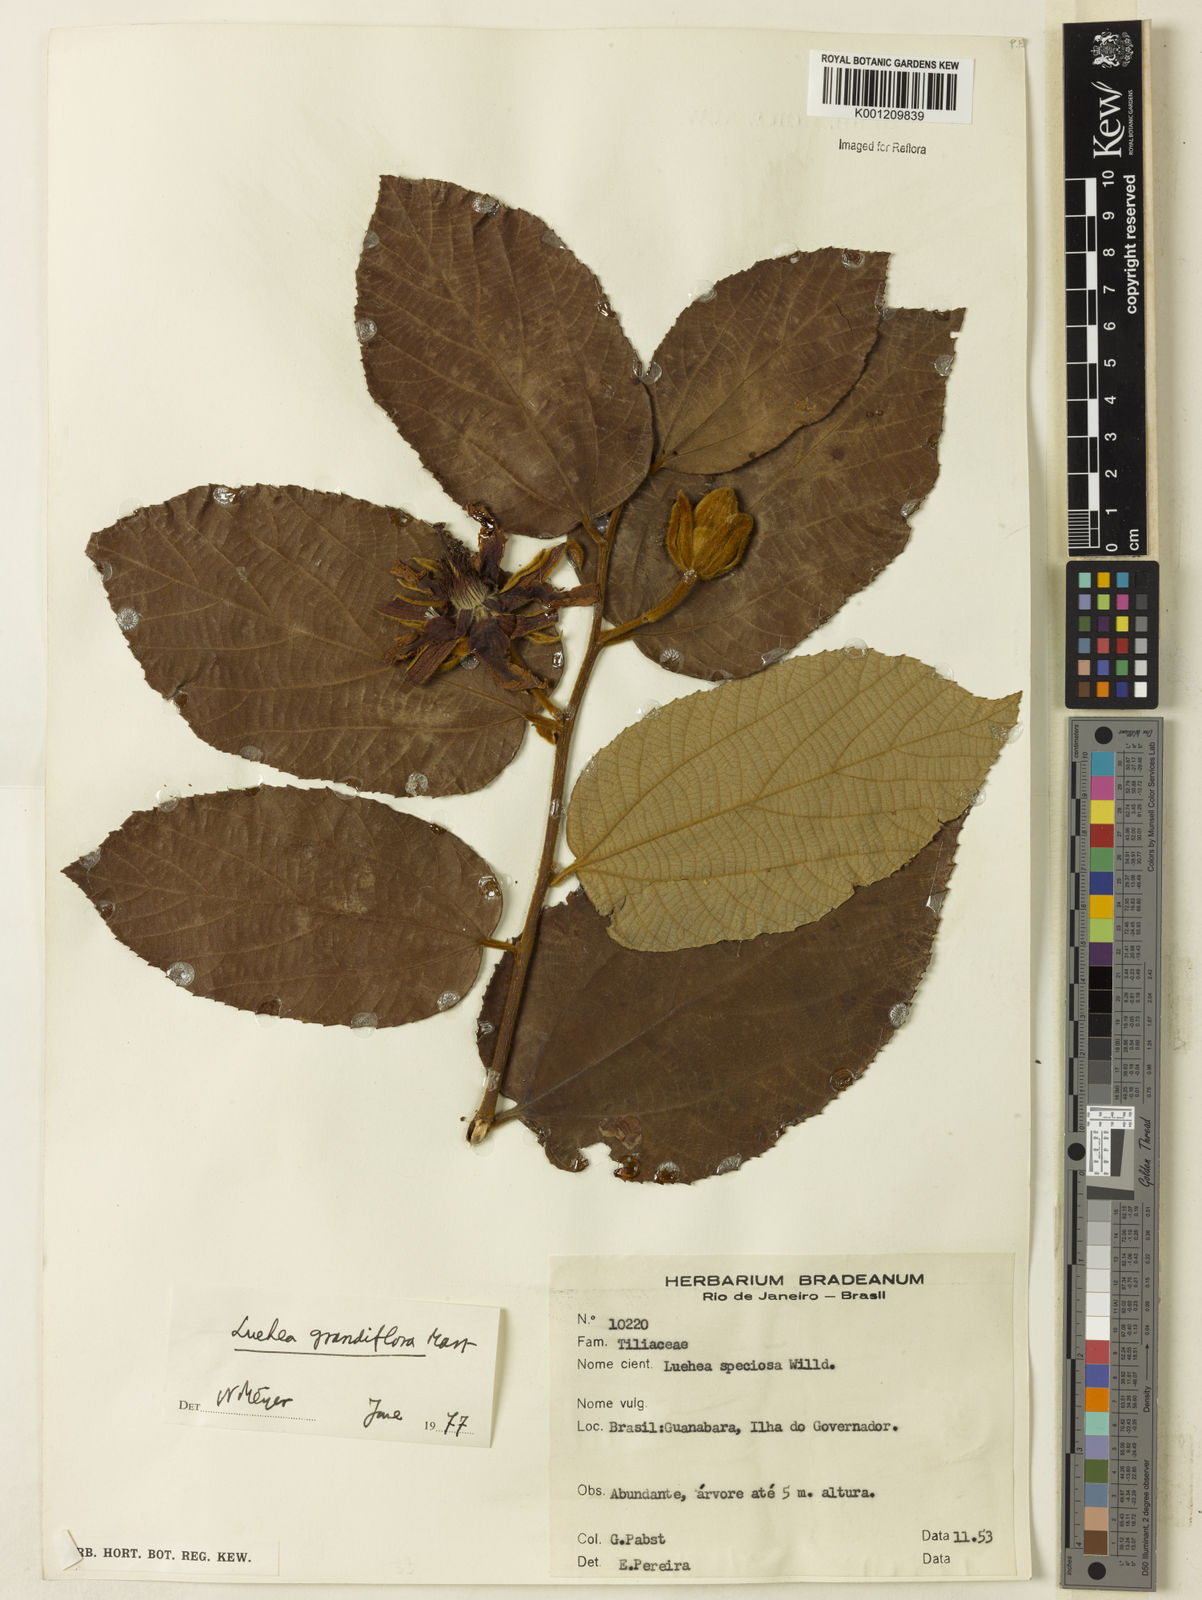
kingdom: Plantae
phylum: Tracheophyta
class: Magnoliopsida
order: Malvales
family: Malvaceae
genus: Luehea
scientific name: Luehea grandiflora
